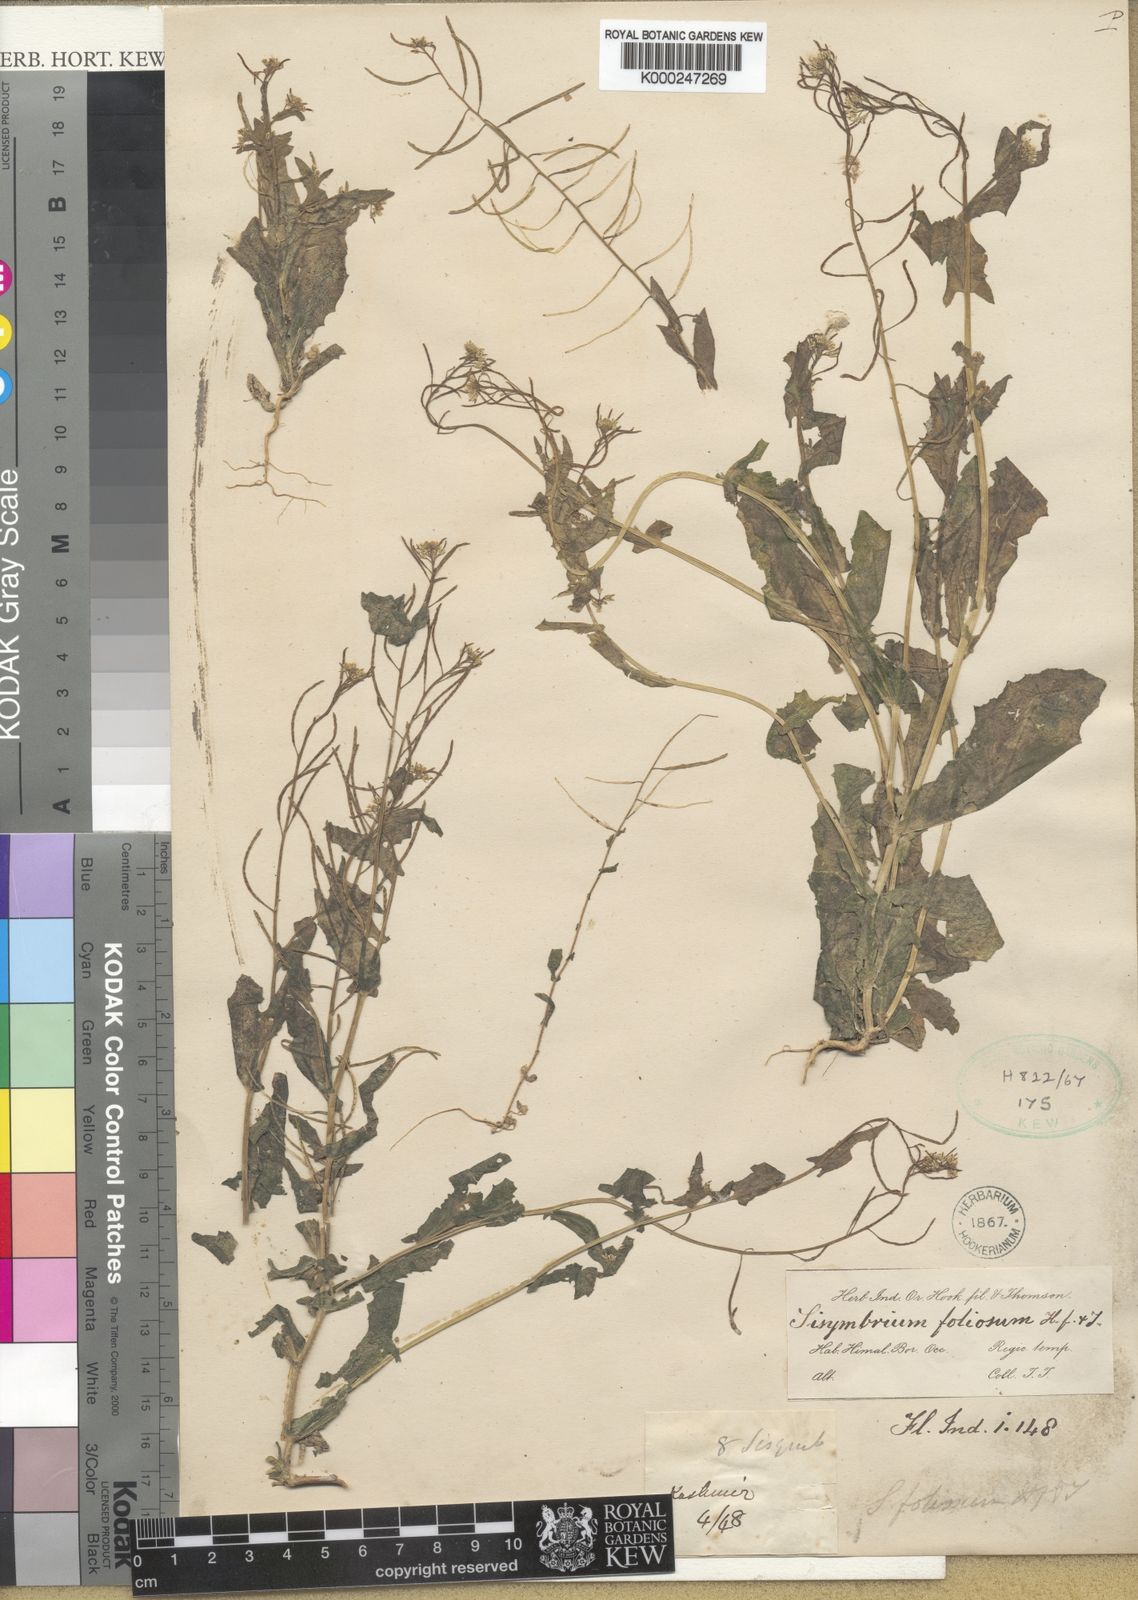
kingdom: Plantae
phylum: Tracheophyta
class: Magnoliopsida
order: Brassicales
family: Brassicaceae
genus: Olimarabidopsis
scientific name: Olimarabidopsis
